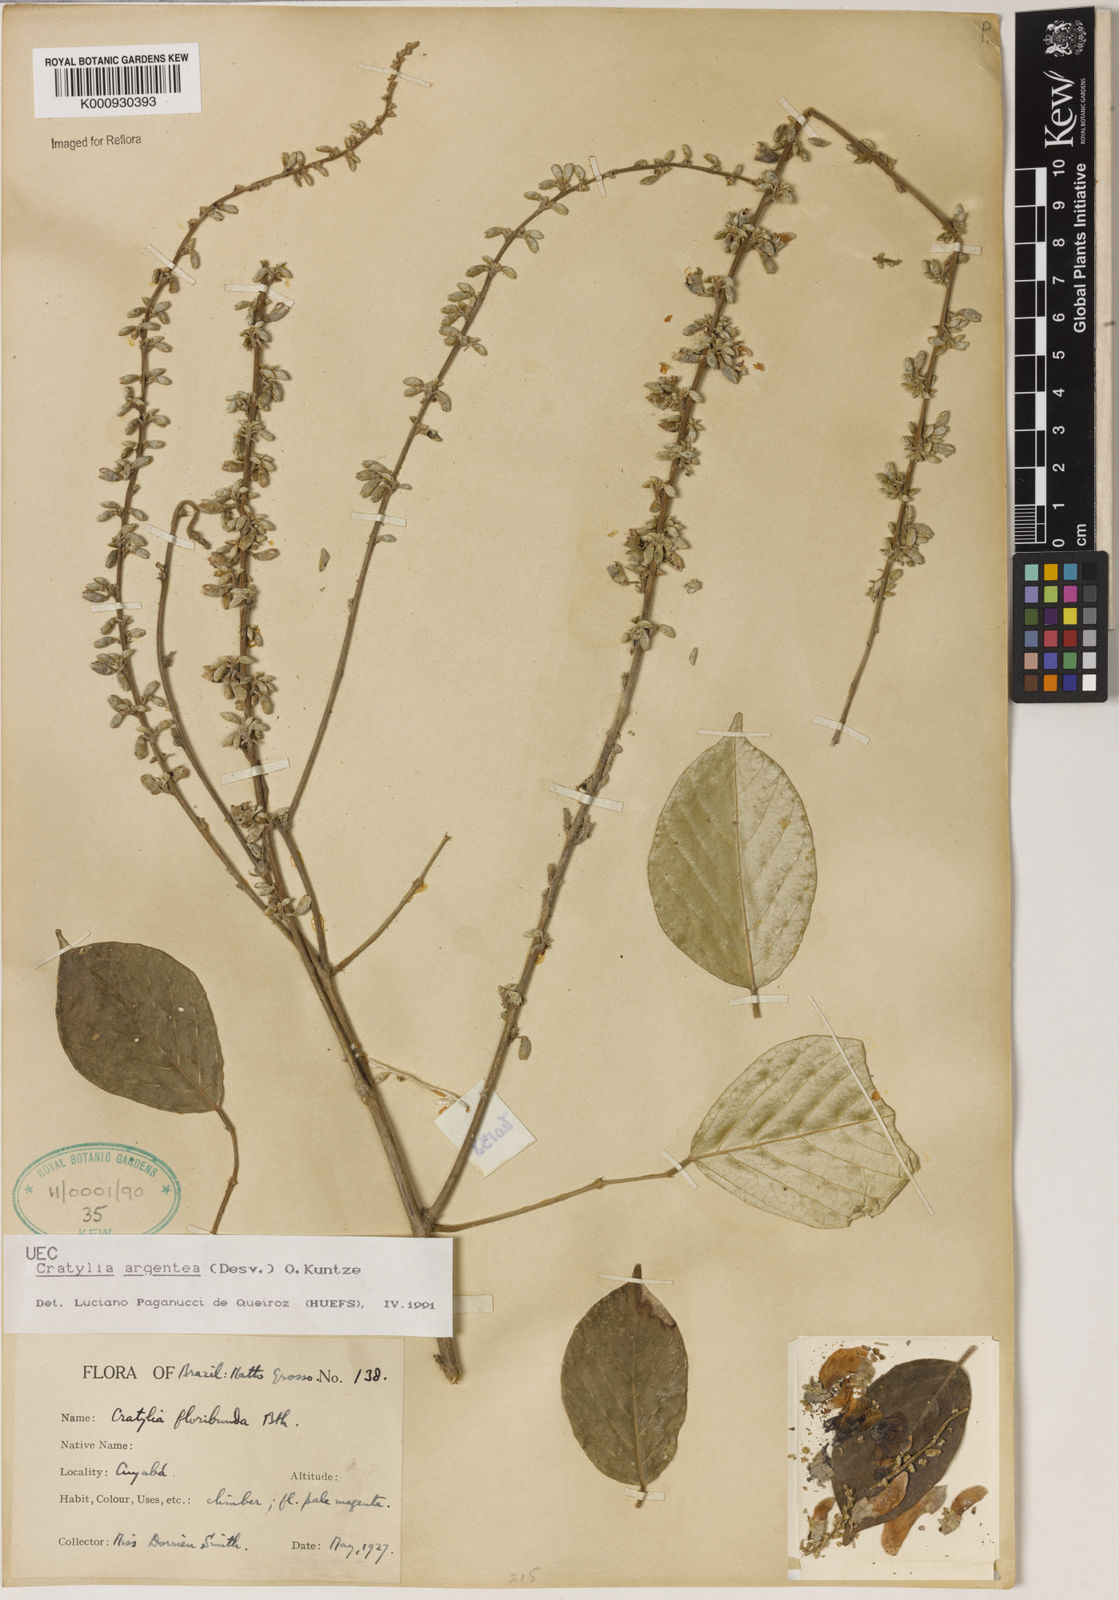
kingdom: Plantae
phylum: Tracheophyta
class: Magnoliopsida
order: Fabales
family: Fabaceae
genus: Cratylia
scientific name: Cratylia argentea
